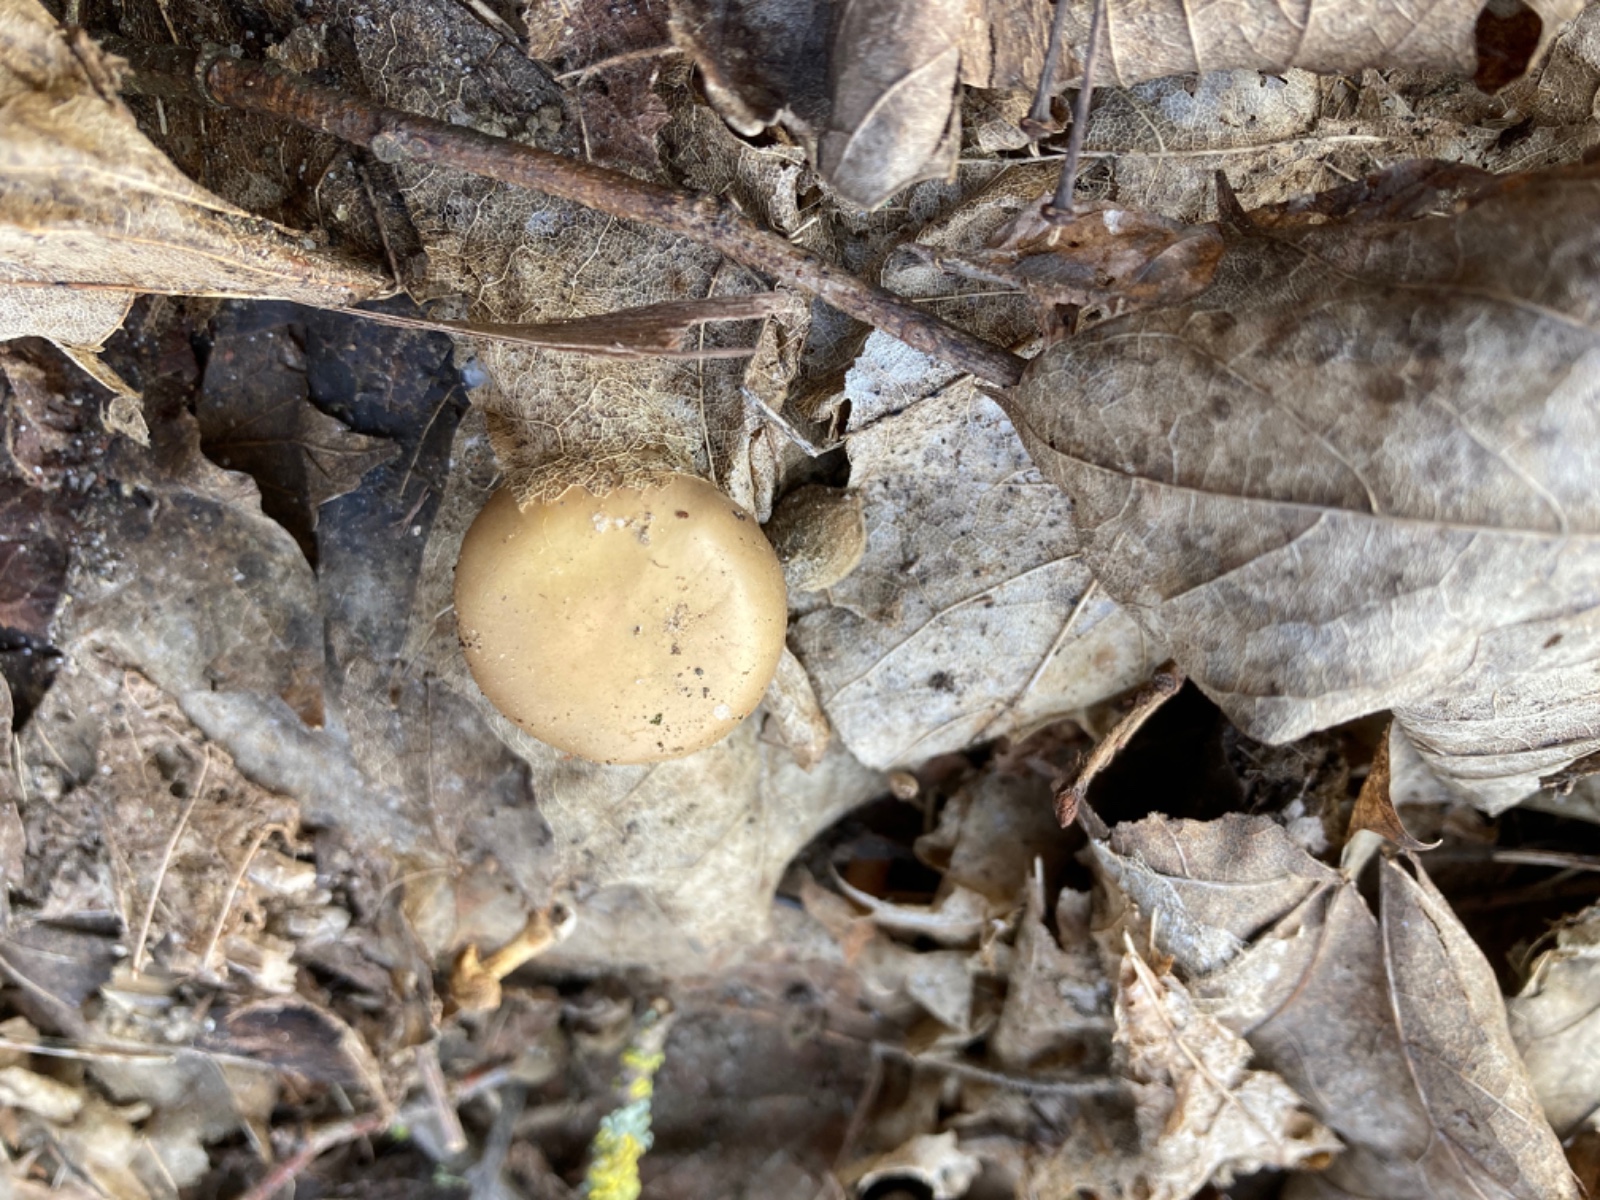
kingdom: Fungi
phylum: Basidiomycota
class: Agaricomycetes
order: Agaricales
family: Strophariaceae
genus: Meottomyces
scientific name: Meottomyces dissimulans
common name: smudsigbrun vinterskælhat
